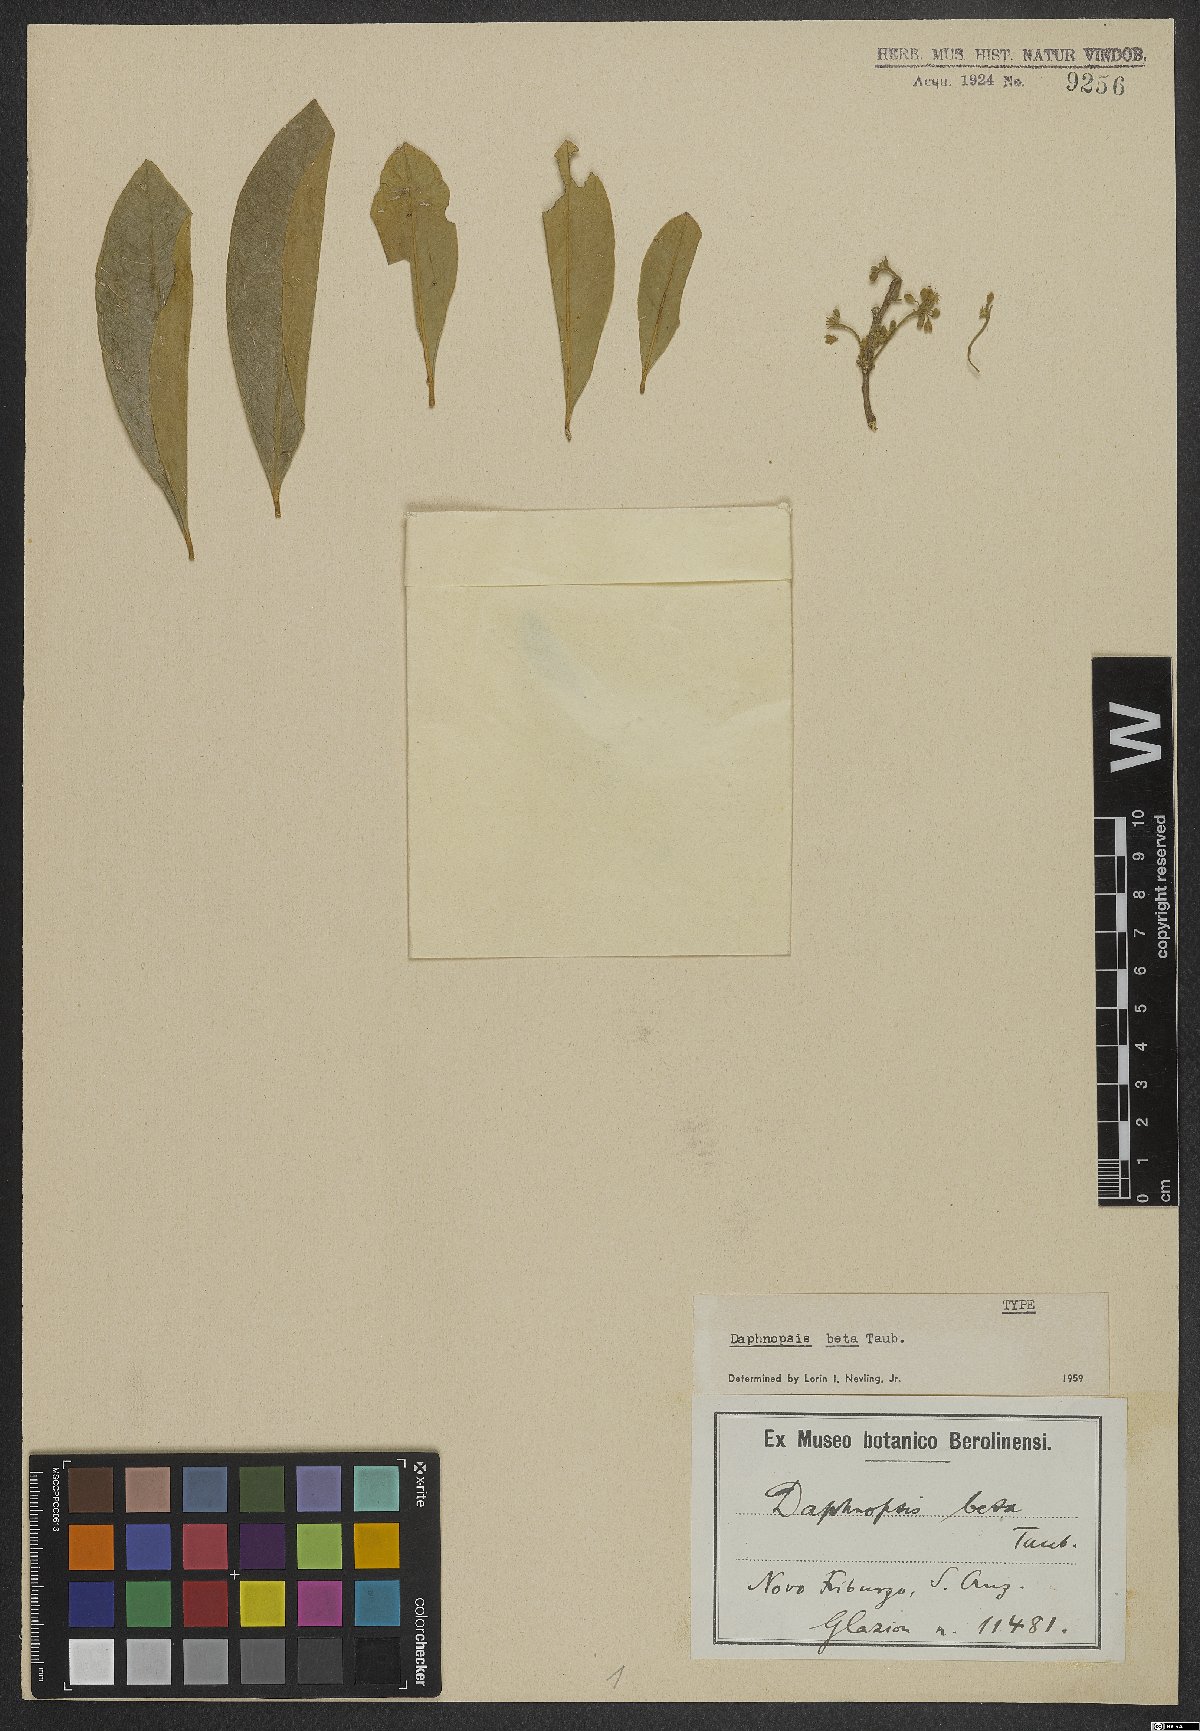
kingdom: Plantae
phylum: Tracheophyta
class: Magnoliopsida
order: Malvales
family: Thymelaeaceae
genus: Daphnopsis
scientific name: Daphnopsis fasciculata
